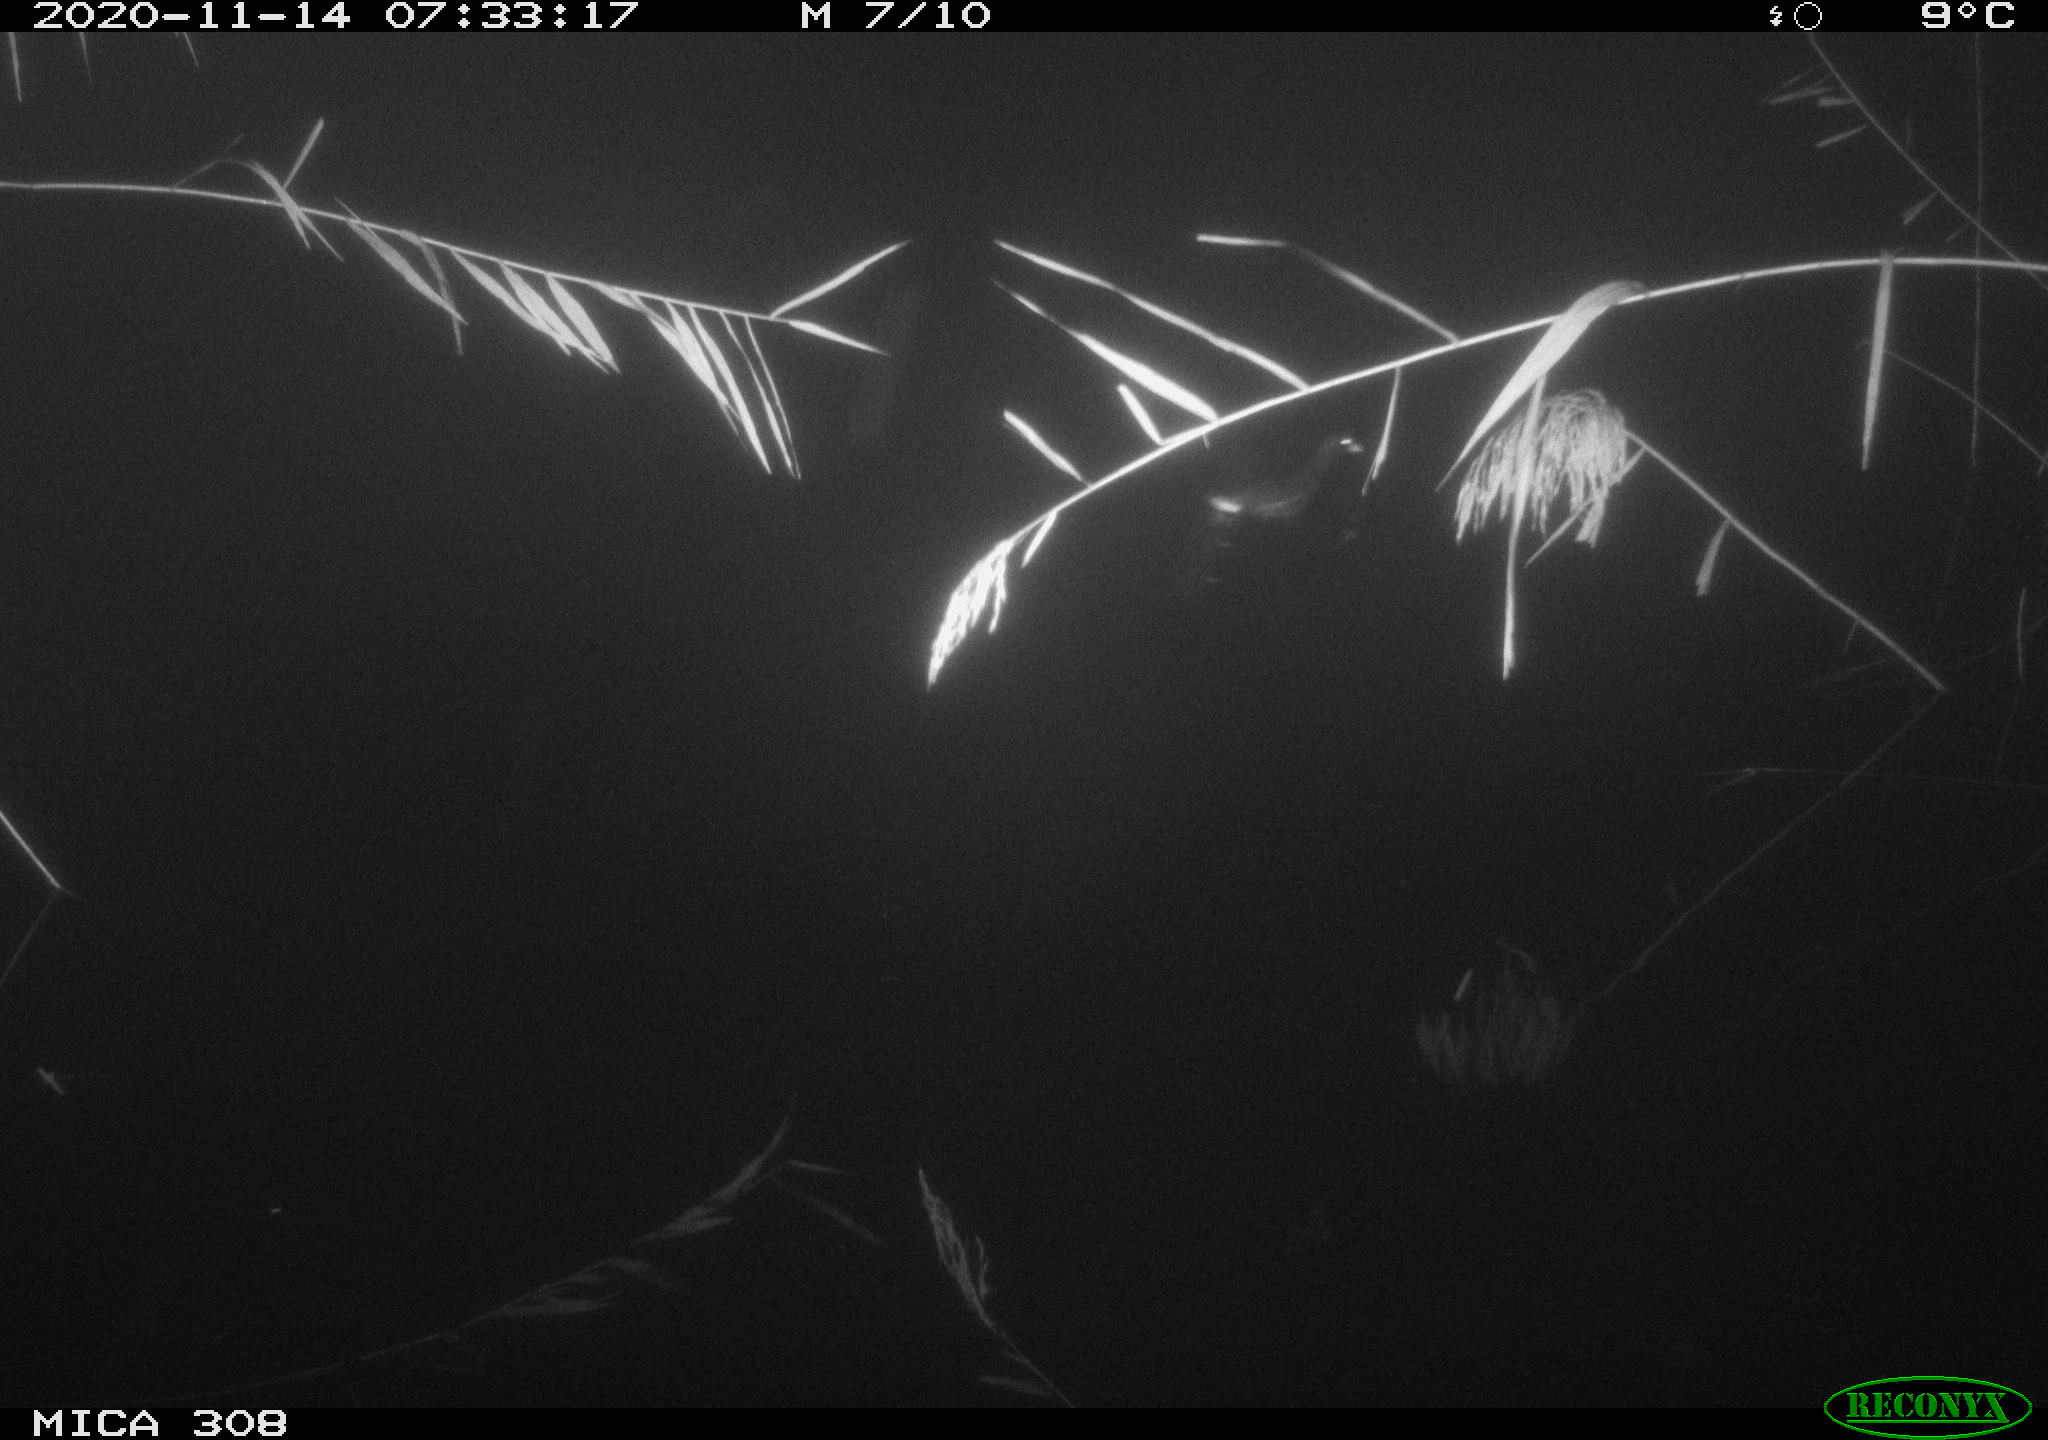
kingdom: Animalia
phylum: Chordata
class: Aves
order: Gruiformes
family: Rallidae
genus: Gallinula
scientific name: Gallinula chloropus
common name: Common moorhen
